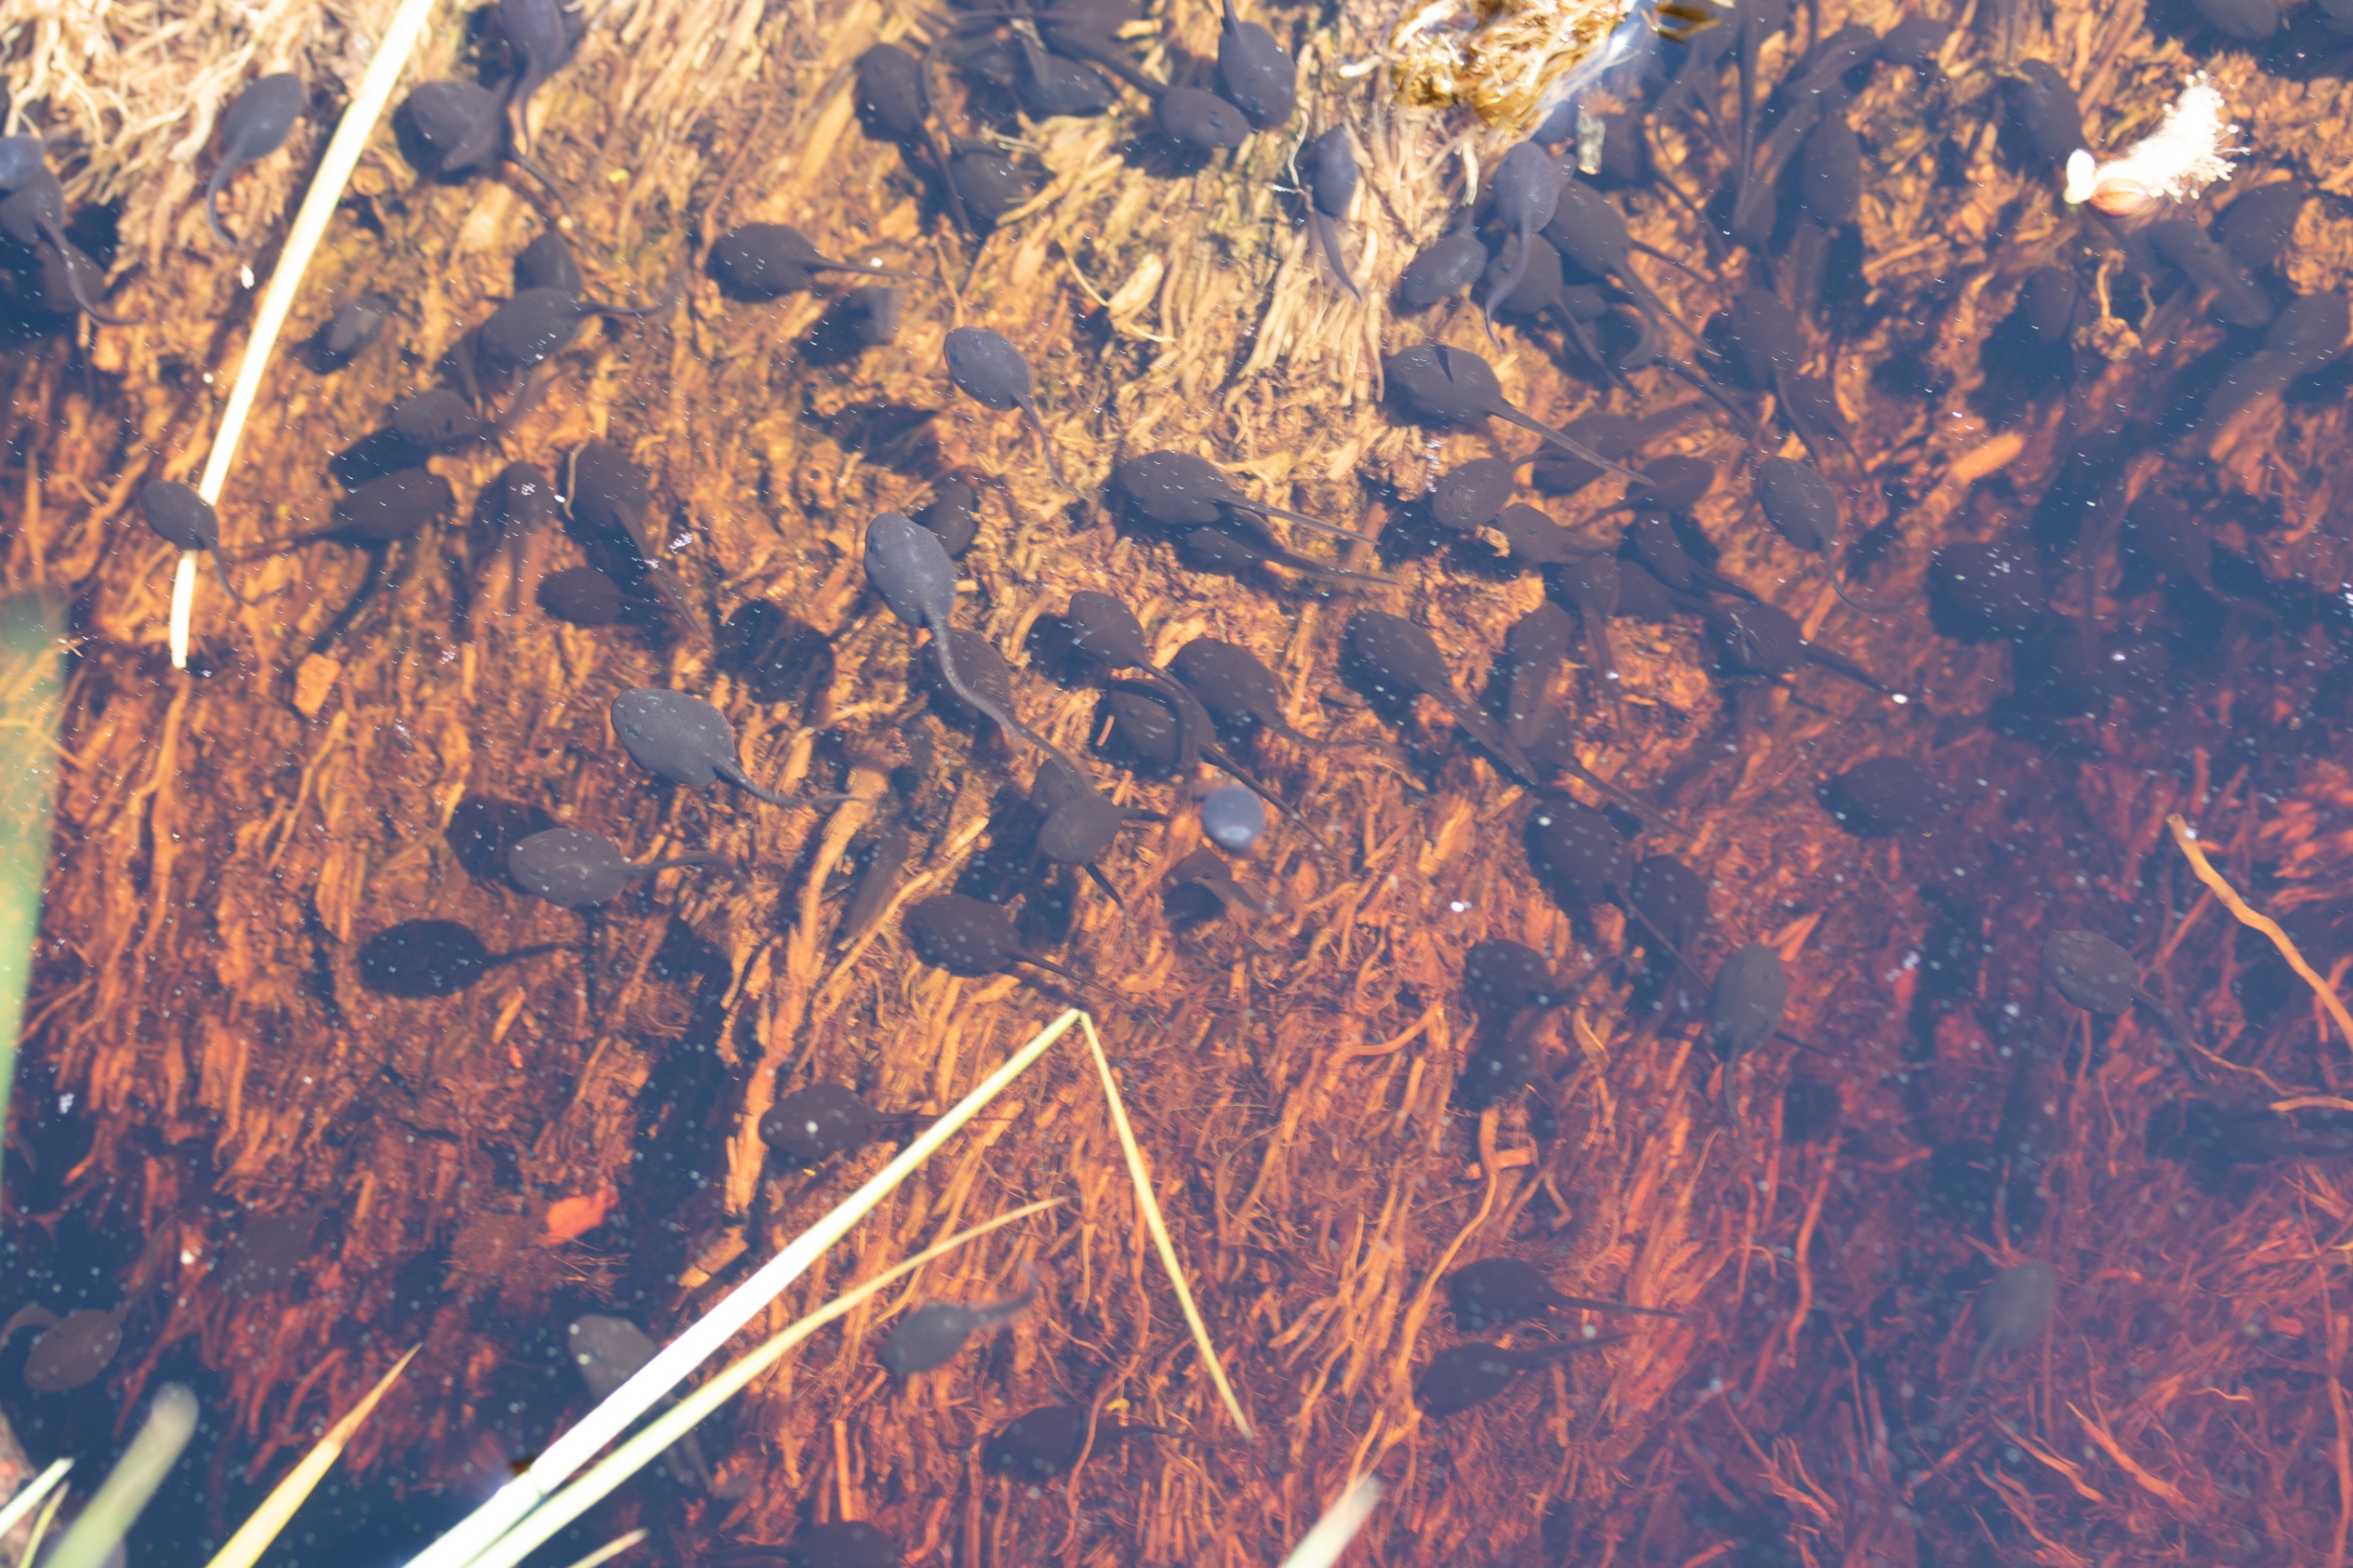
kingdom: Animalia
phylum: Chordata
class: Amphibia
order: Anura
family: Bufonidae
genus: Bufo
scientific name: Bufo bufo
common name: Skrubtudse
